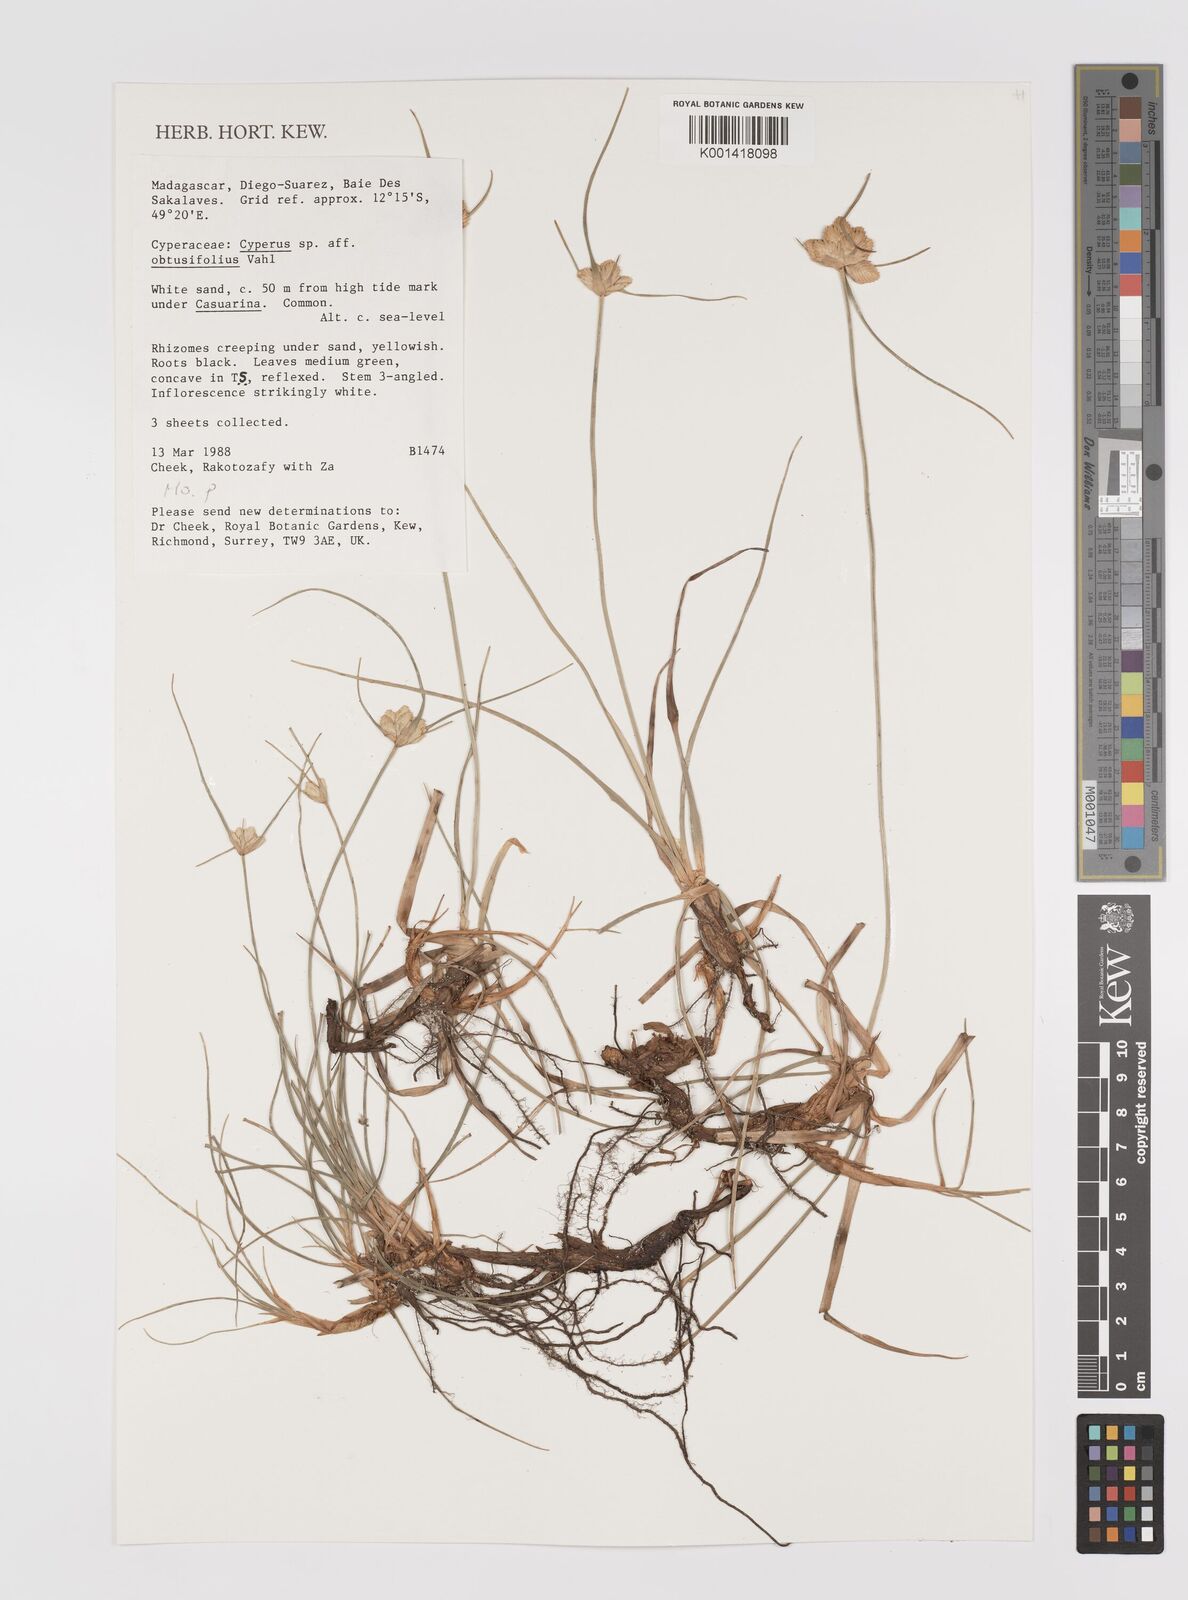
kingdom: Plantae
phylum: Tracheophyta
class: Liliopsida
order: Poales
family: Cyperaceae
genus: Cyperus
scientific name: Cyperus niveus
